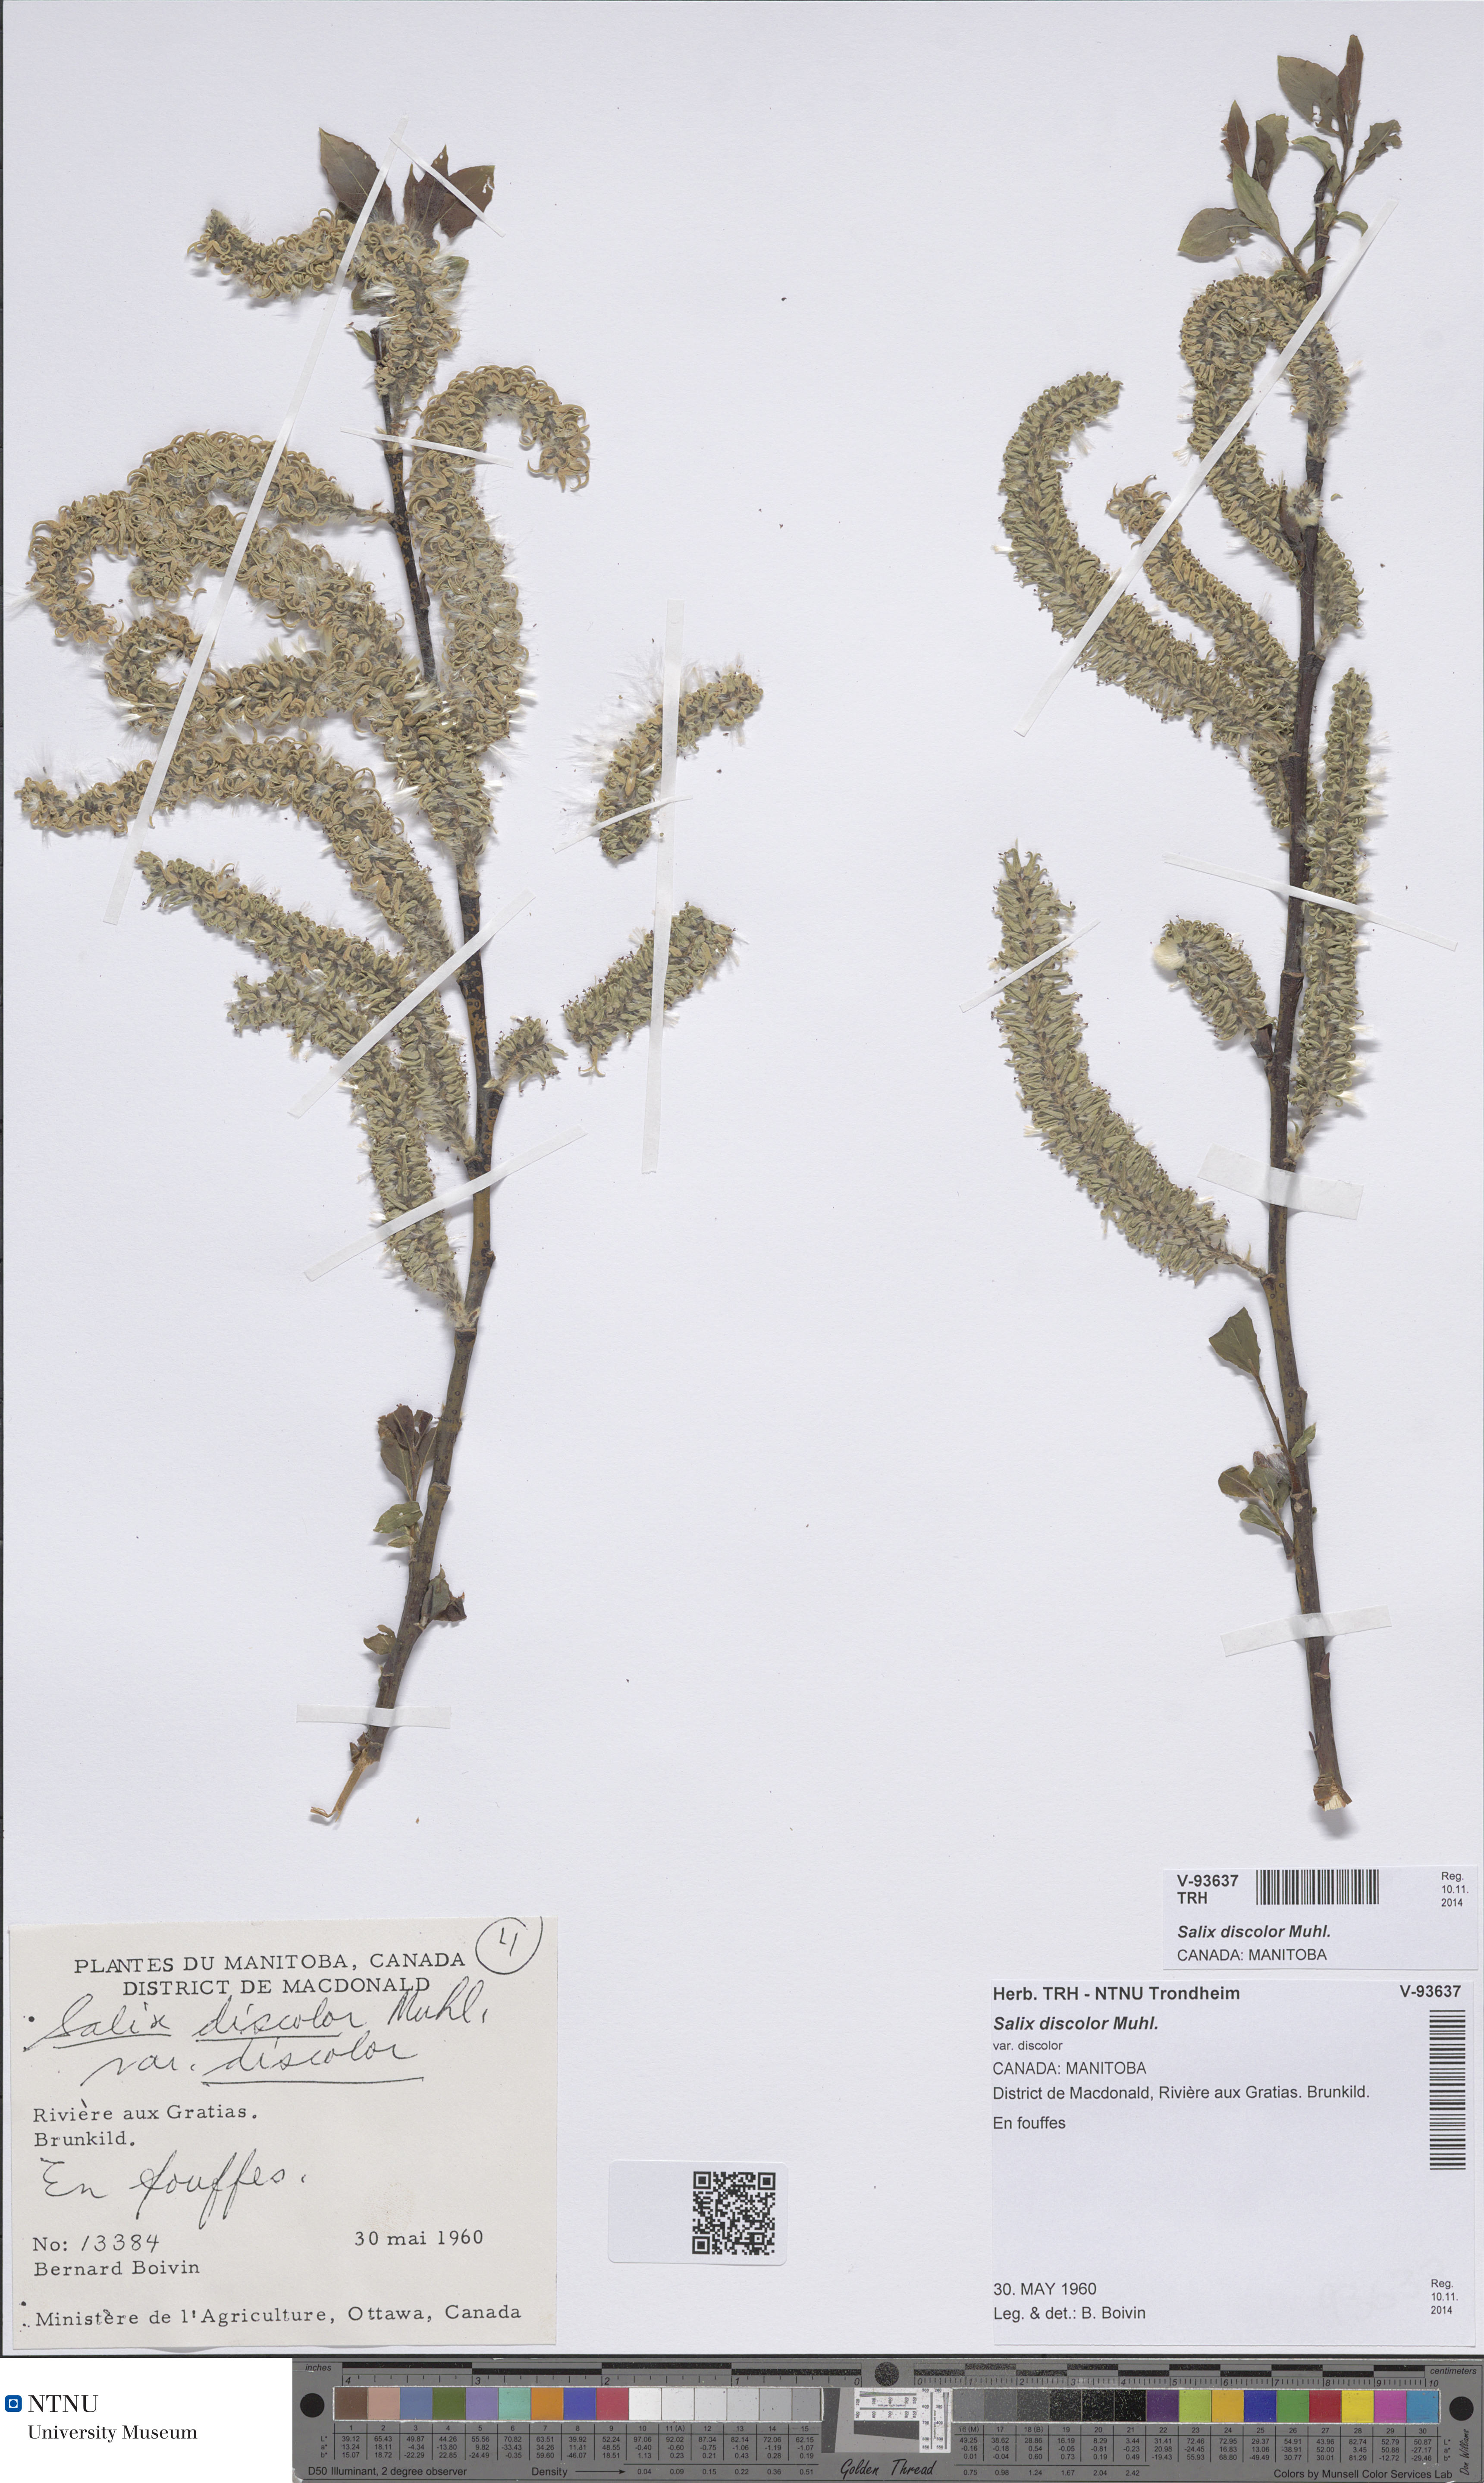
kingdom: Plantae
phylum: Tracheophyta
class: Magnoliopsida
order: Malpighiales
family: Salicaceae
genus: Salix
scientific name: Salix discolor
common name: Glaucous willow
